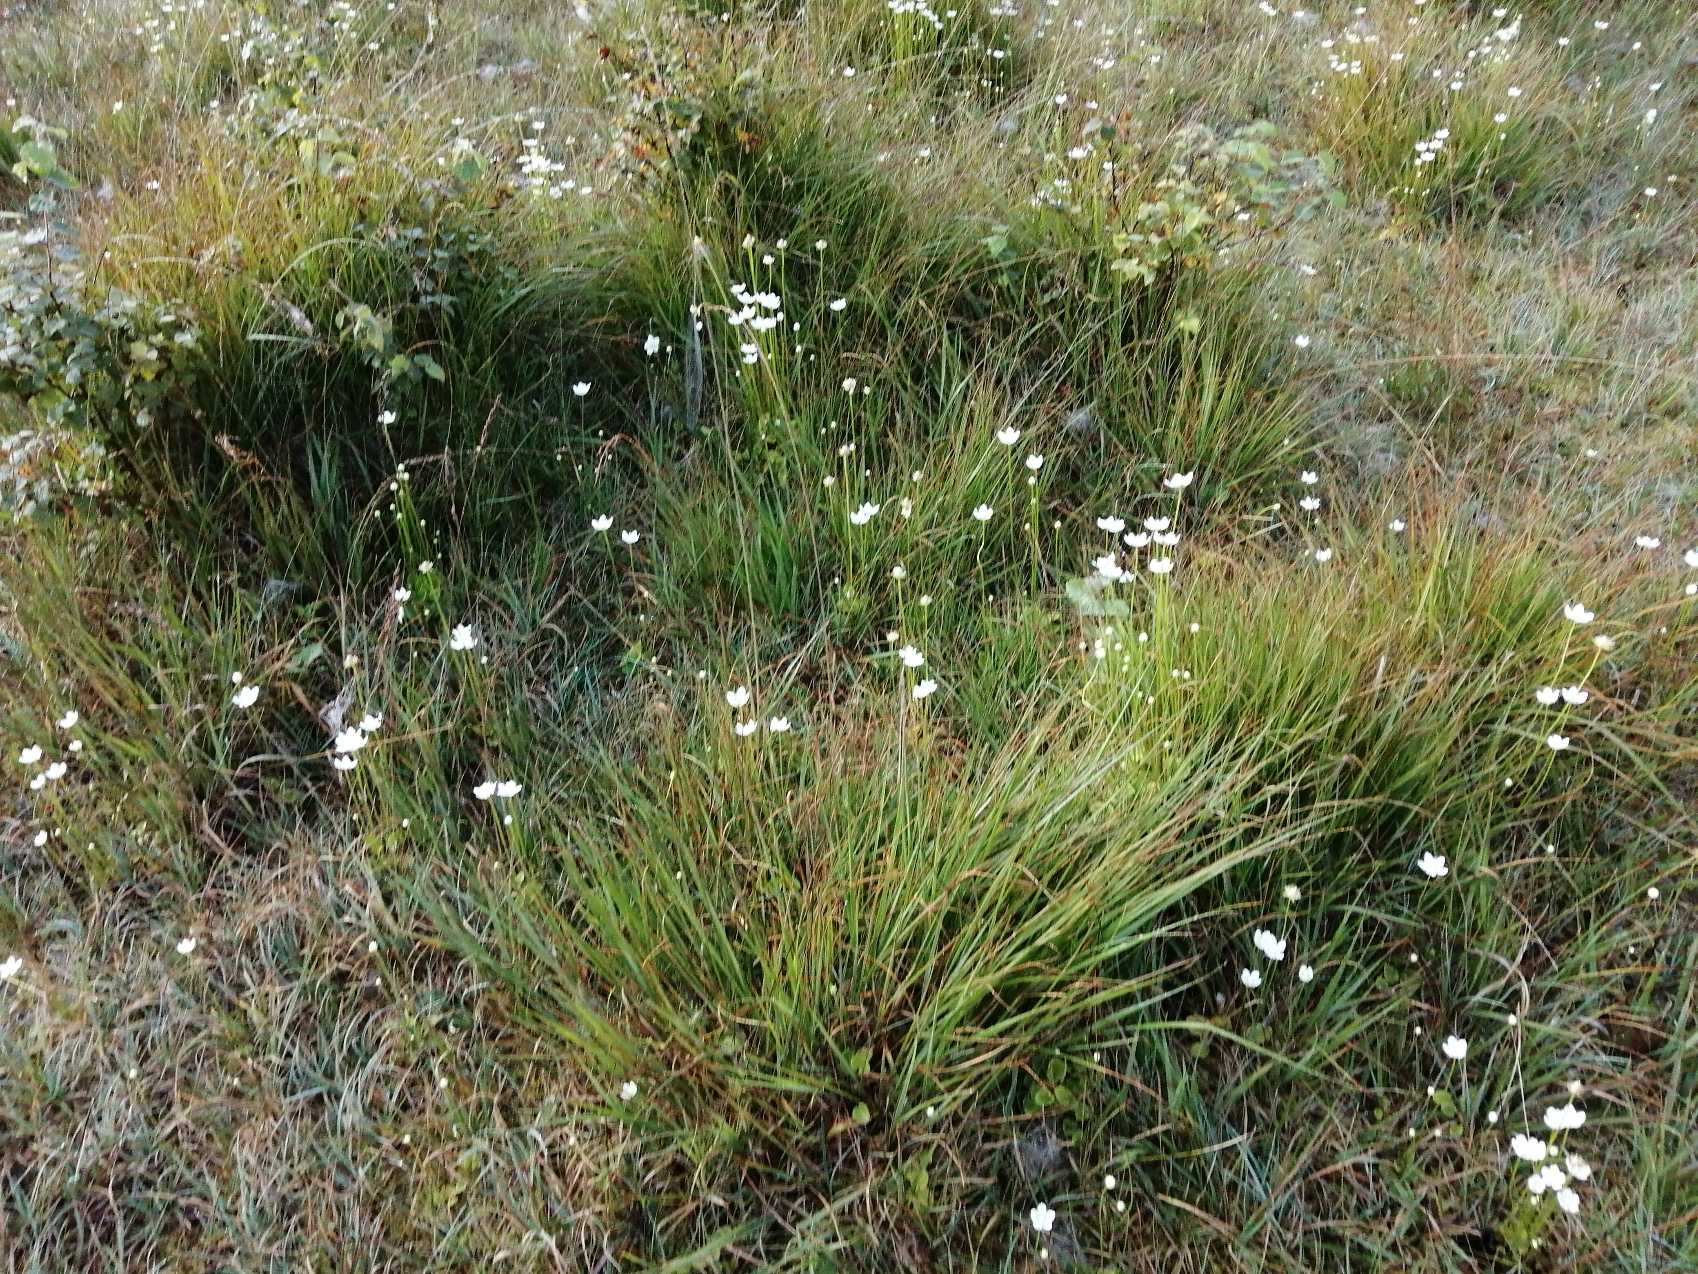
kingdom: Plantae
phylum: Tracheophyta
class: Magnoliopsida
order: Celastrales
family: Parnassiaceae
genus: Parnassia
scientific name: Parnassia palustris
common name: Leverurt
